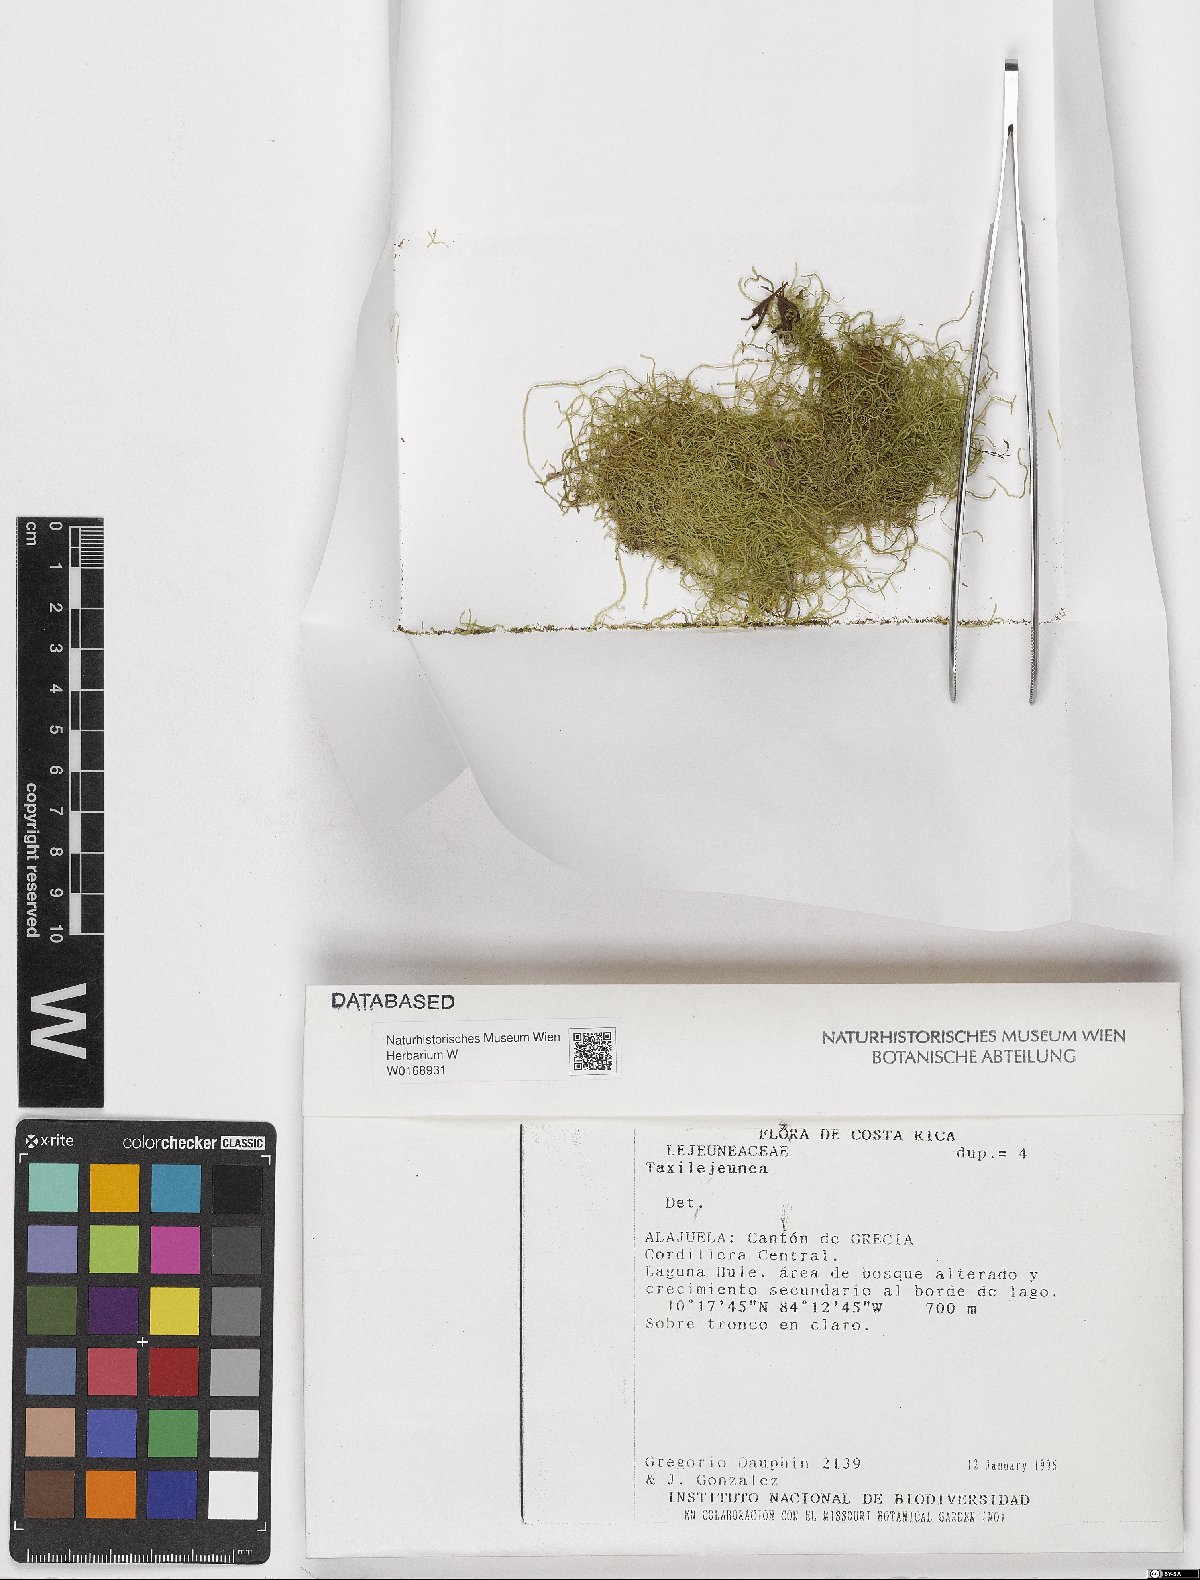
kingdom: Plantae
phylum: Marchantiophyta
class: Jungermanniopsida
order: Porellales
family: Lejeuneaceae
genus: Taxilejeunea
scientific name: Taxilejeunea
